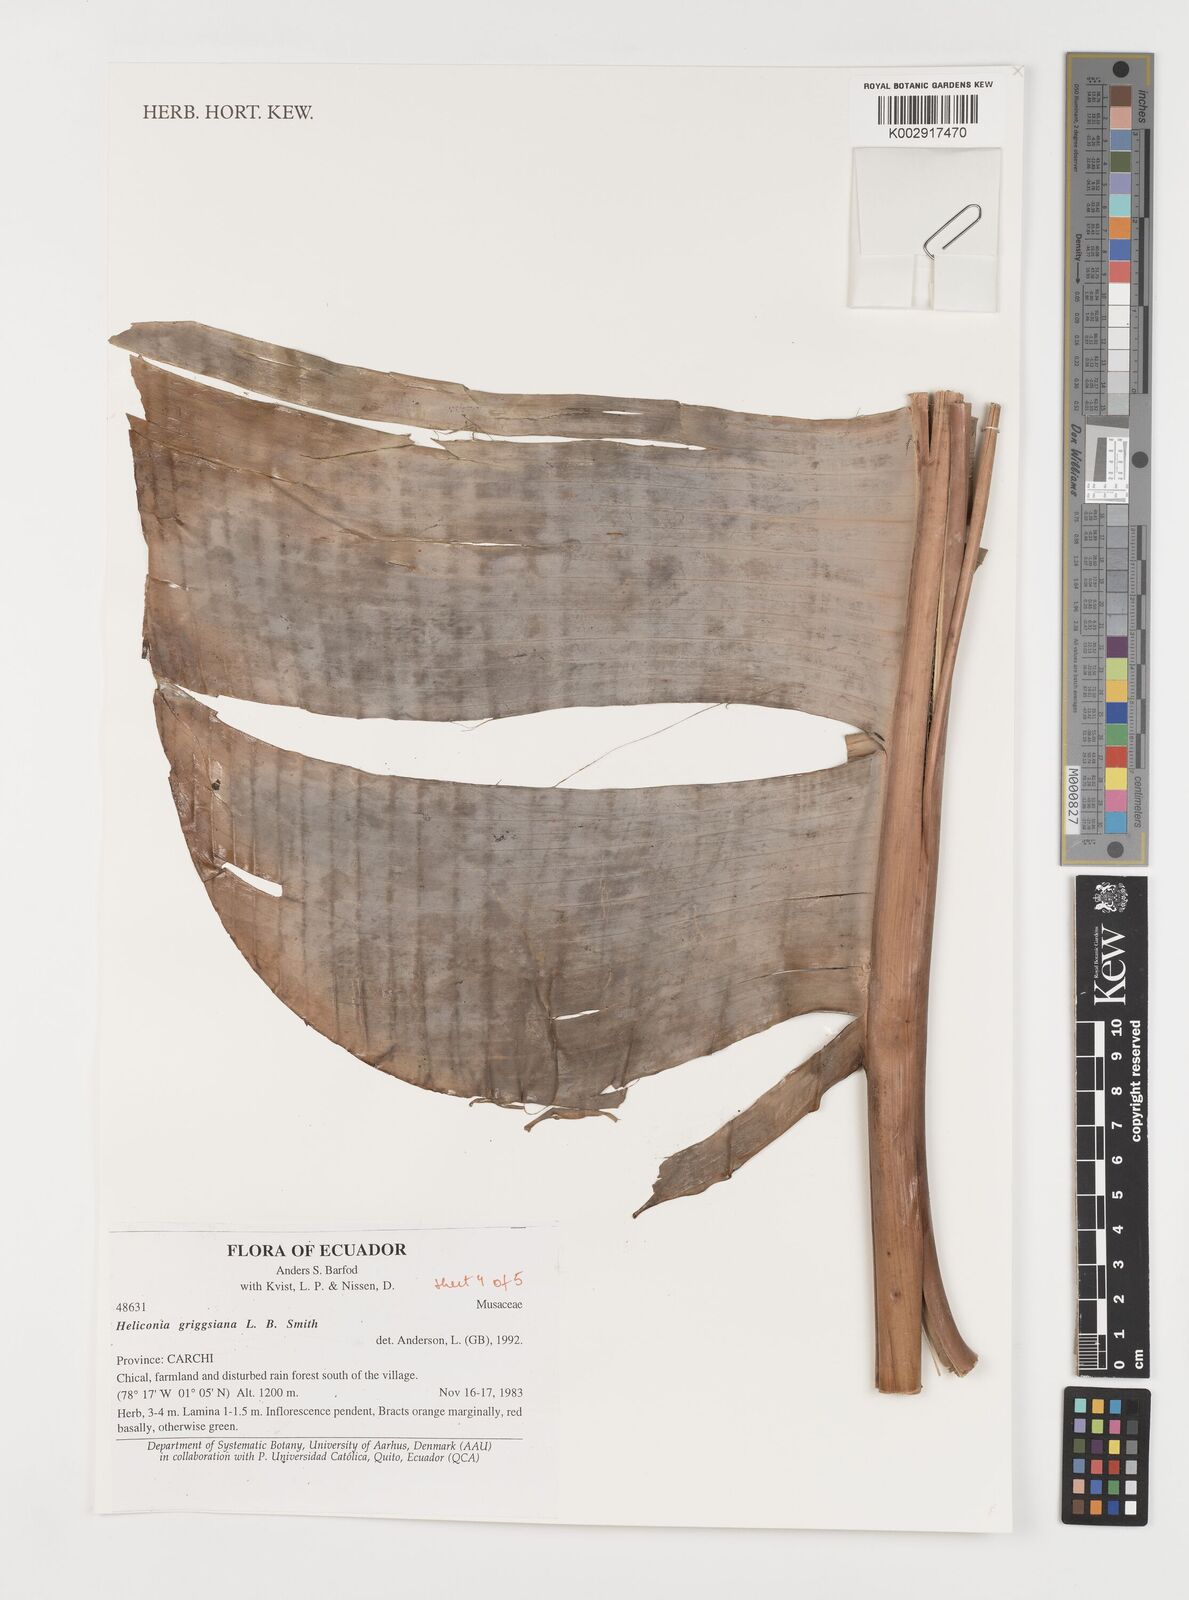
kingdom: Plantae
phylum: Tracheophyta
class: Liliopsida
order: Zingiberales
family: Heliconiaceae
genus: Heliconia
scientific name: Heliconia griggsiana
